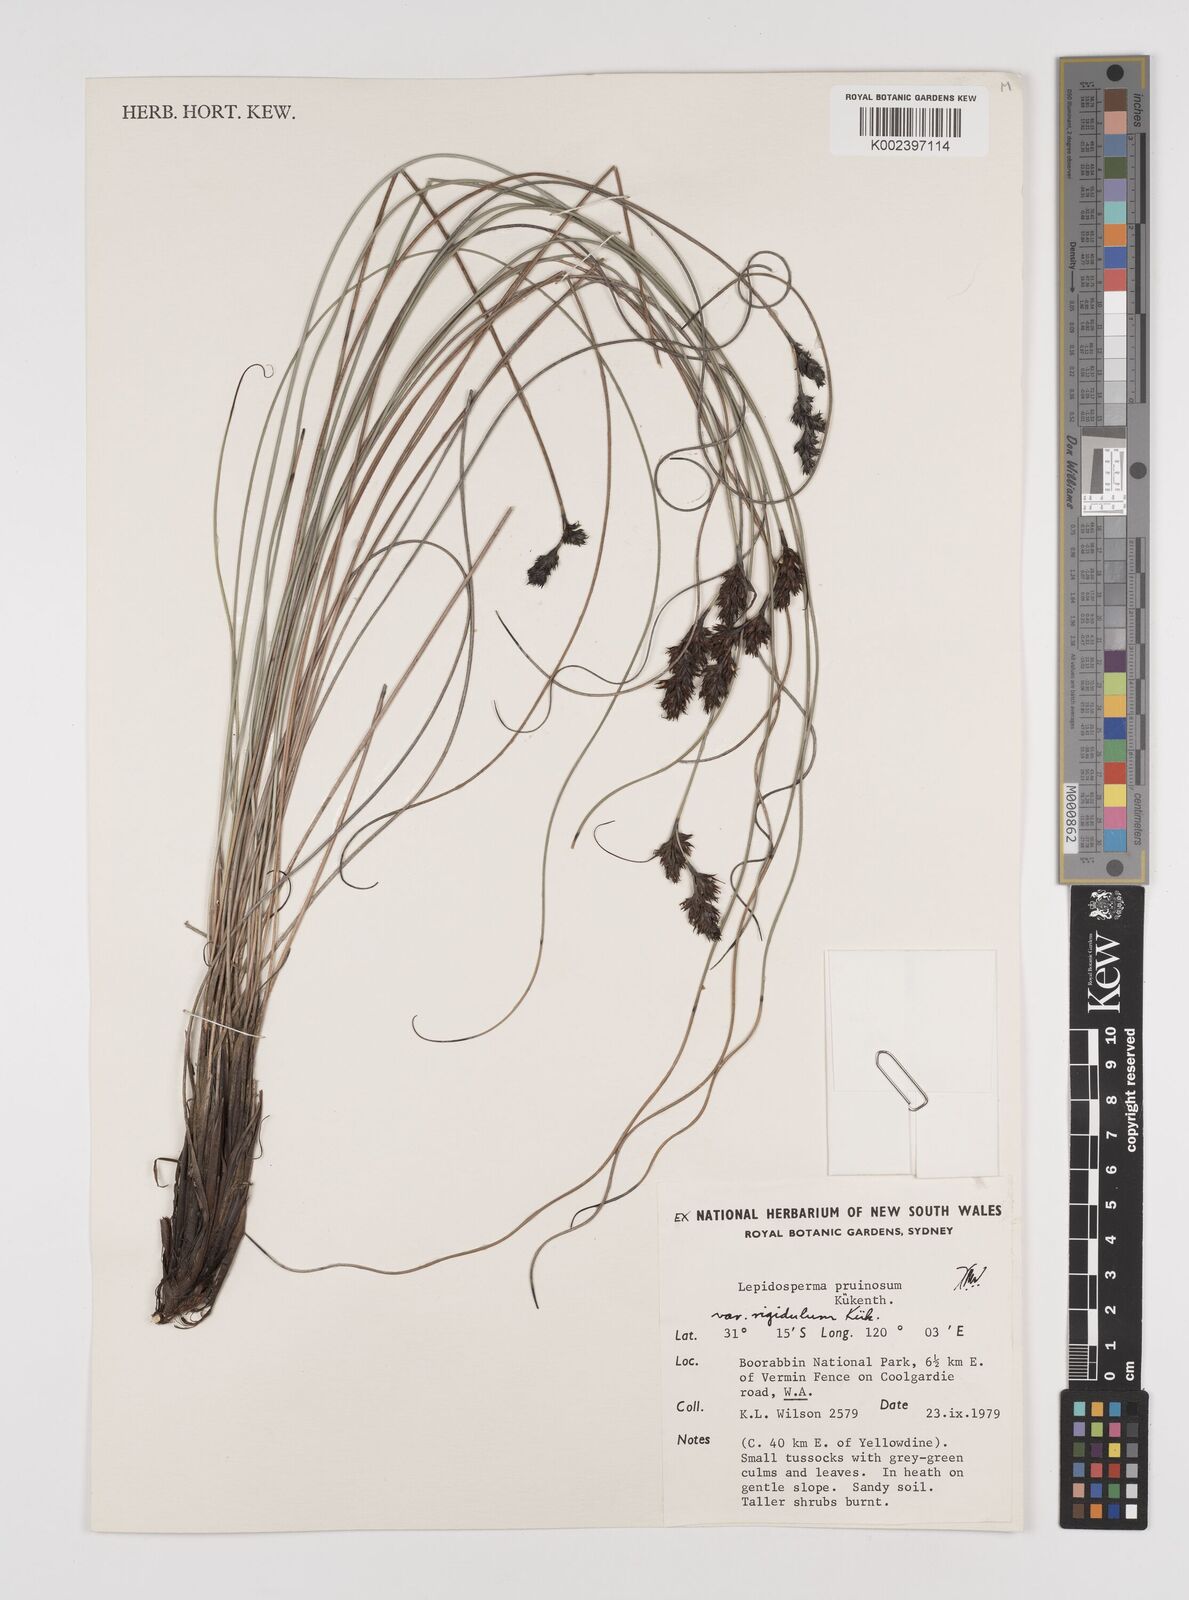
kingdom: Plantae
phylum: Tracheophyta
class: Liliopsida
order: Poales
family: Cyperaceae
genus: Lepidosperma
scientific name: Lepidosperma pruinosum
